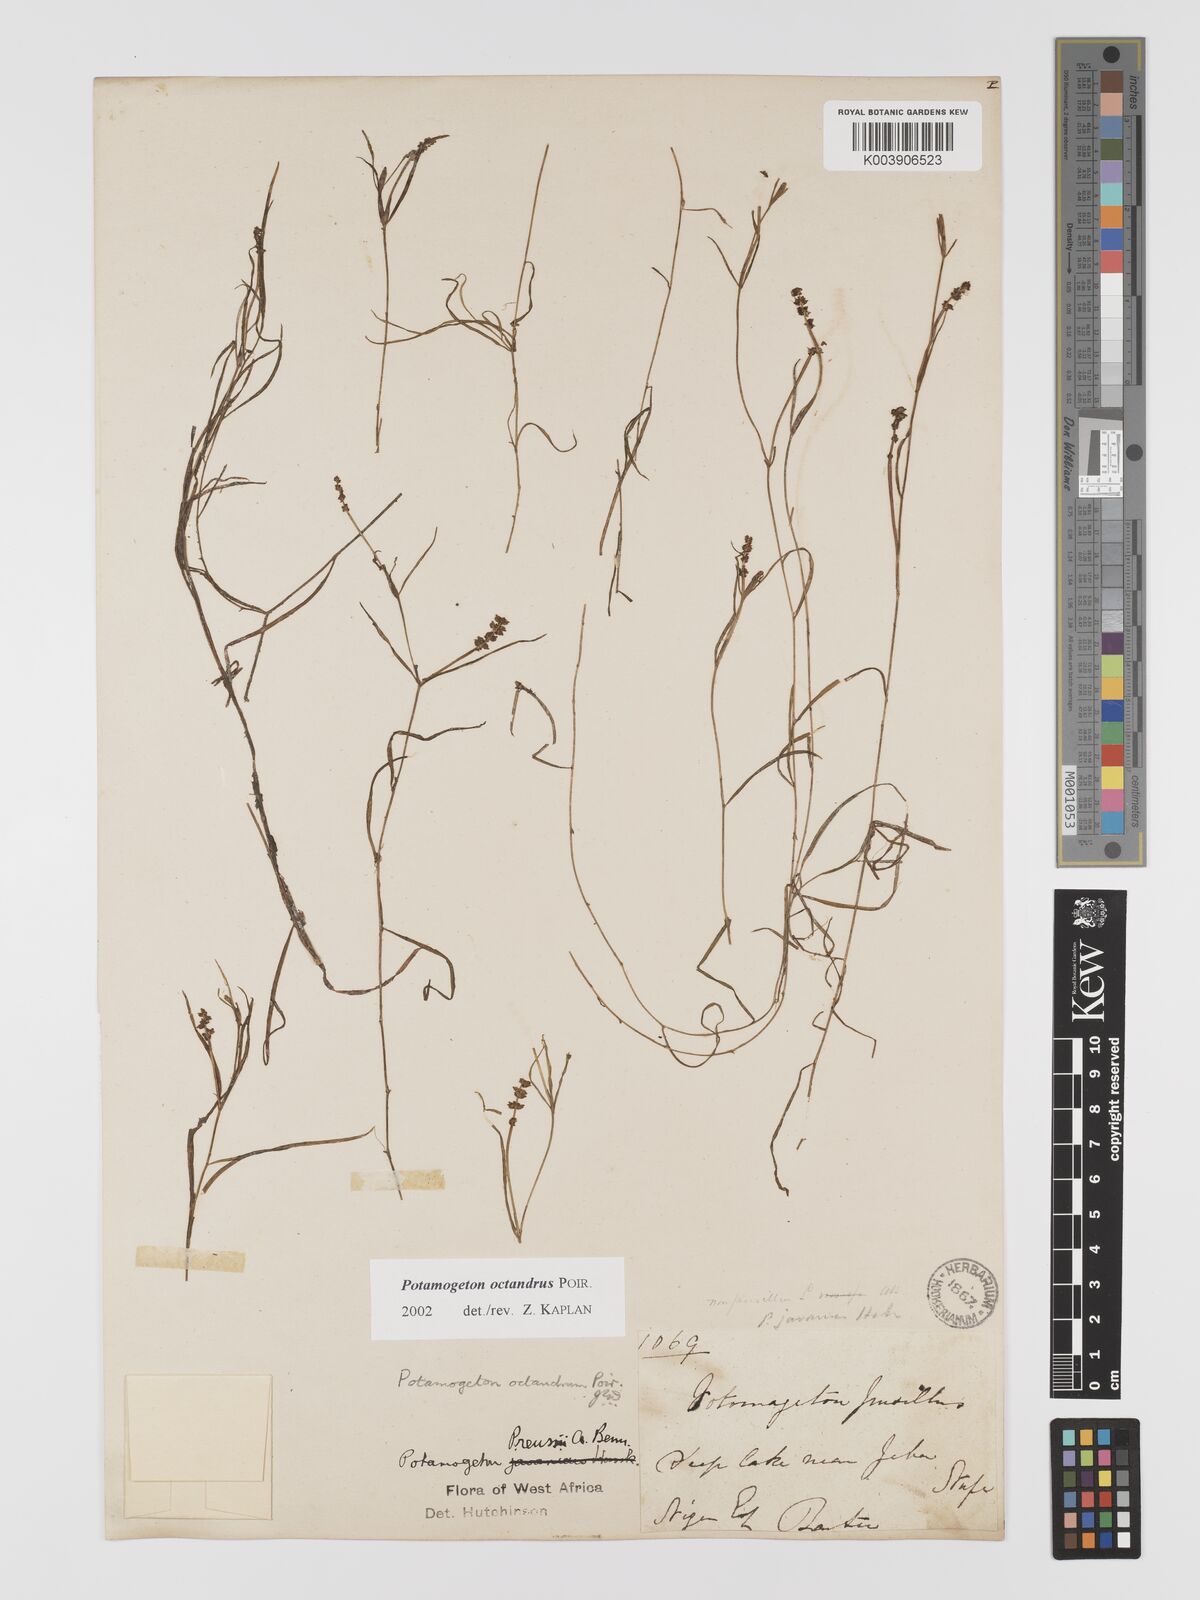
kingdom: Plantae
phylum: Tracheophyta
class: Liliopsida
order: Alismatales
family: Potamogetonaceae
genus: Potamogeton
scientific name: Potamogeton octandrus
